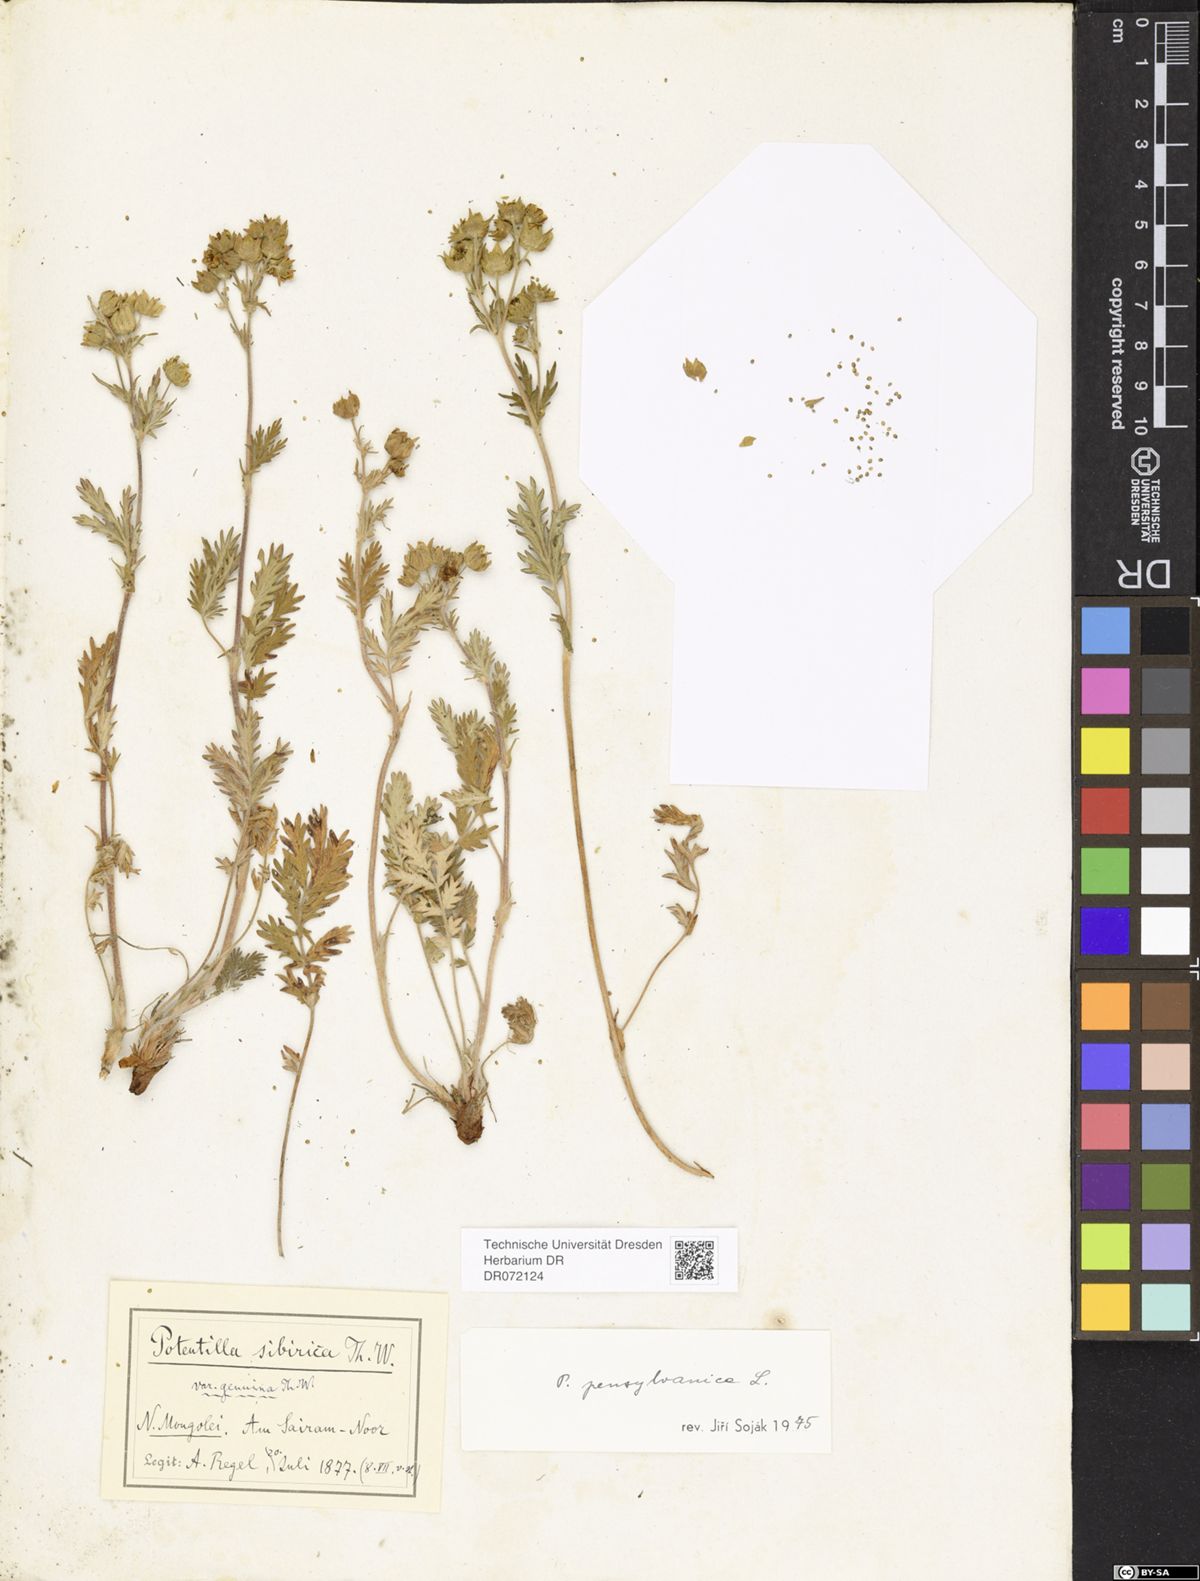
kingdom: Plantae
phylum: Tracheophyta
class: Magnoliopsida
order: Rosales
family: Rosaceae
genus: Potentilla
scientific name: Potentilla pensylvanica
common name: Pennsylvania cinquefoil
